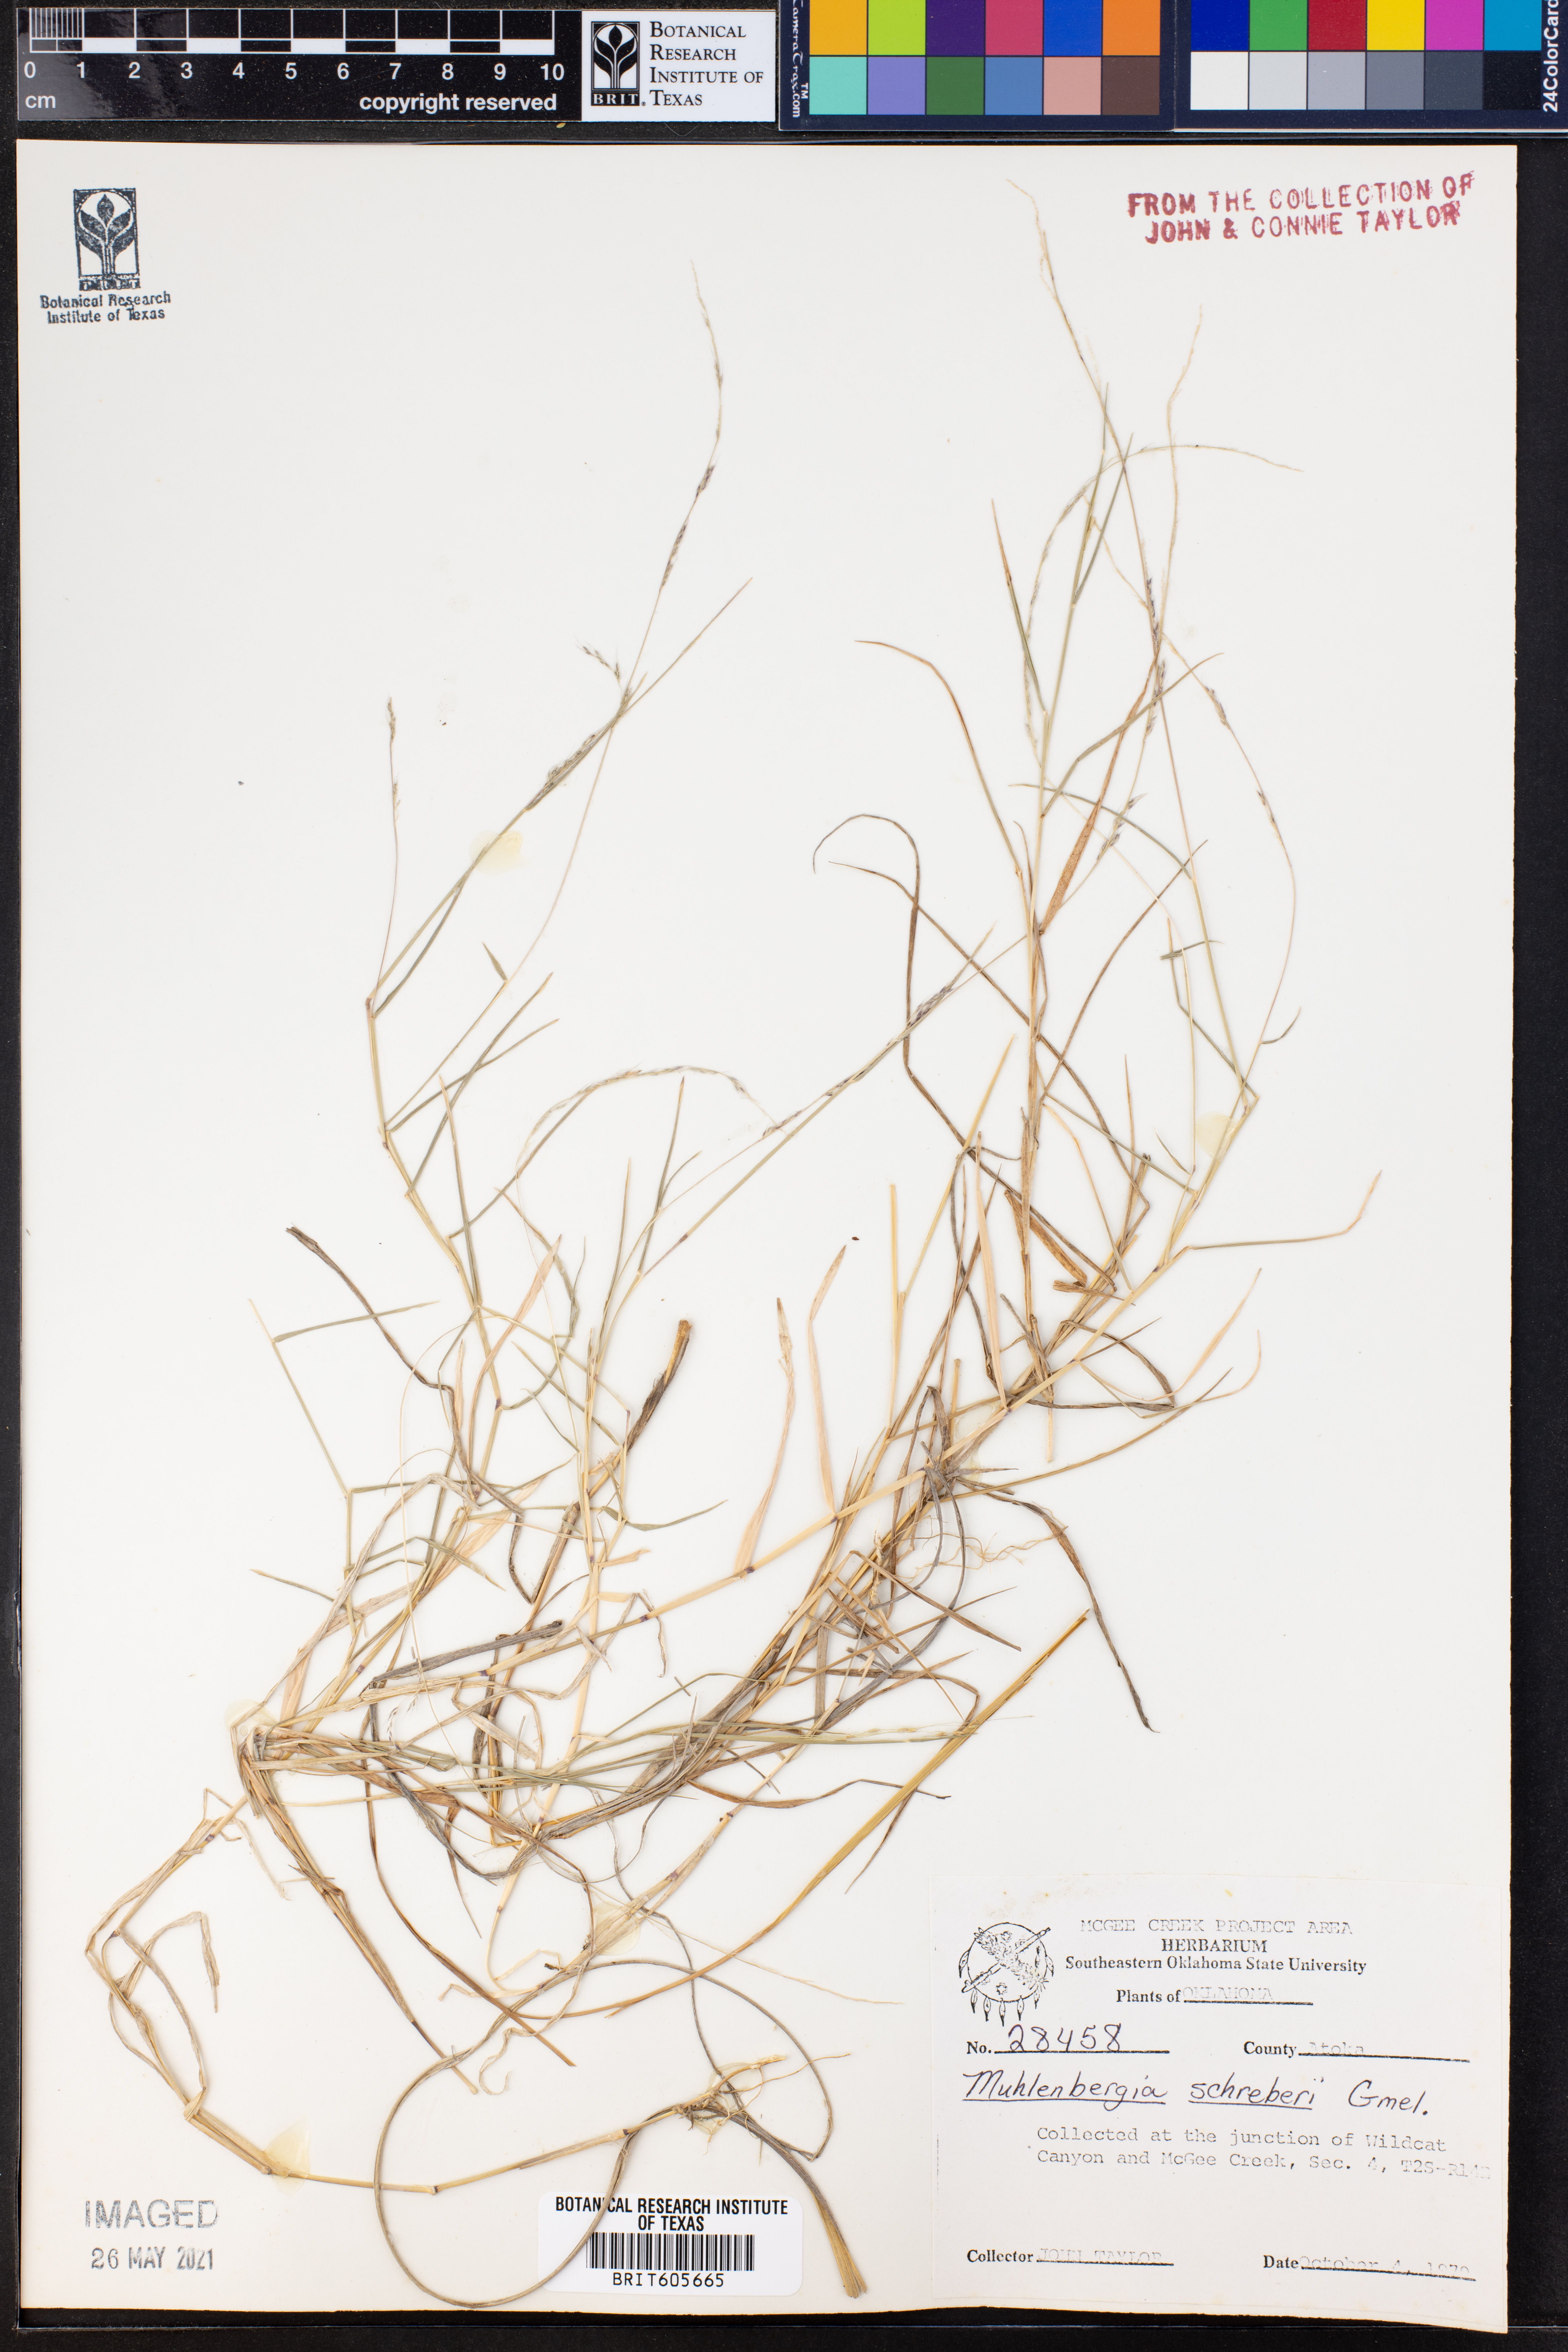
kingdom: Plantae
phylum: Tracheophyta
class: Liliopsida
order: Poales
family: Poaceae
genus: Muhlenbergia
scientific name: Muhlenbergia schreberi
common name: Nimblewill
